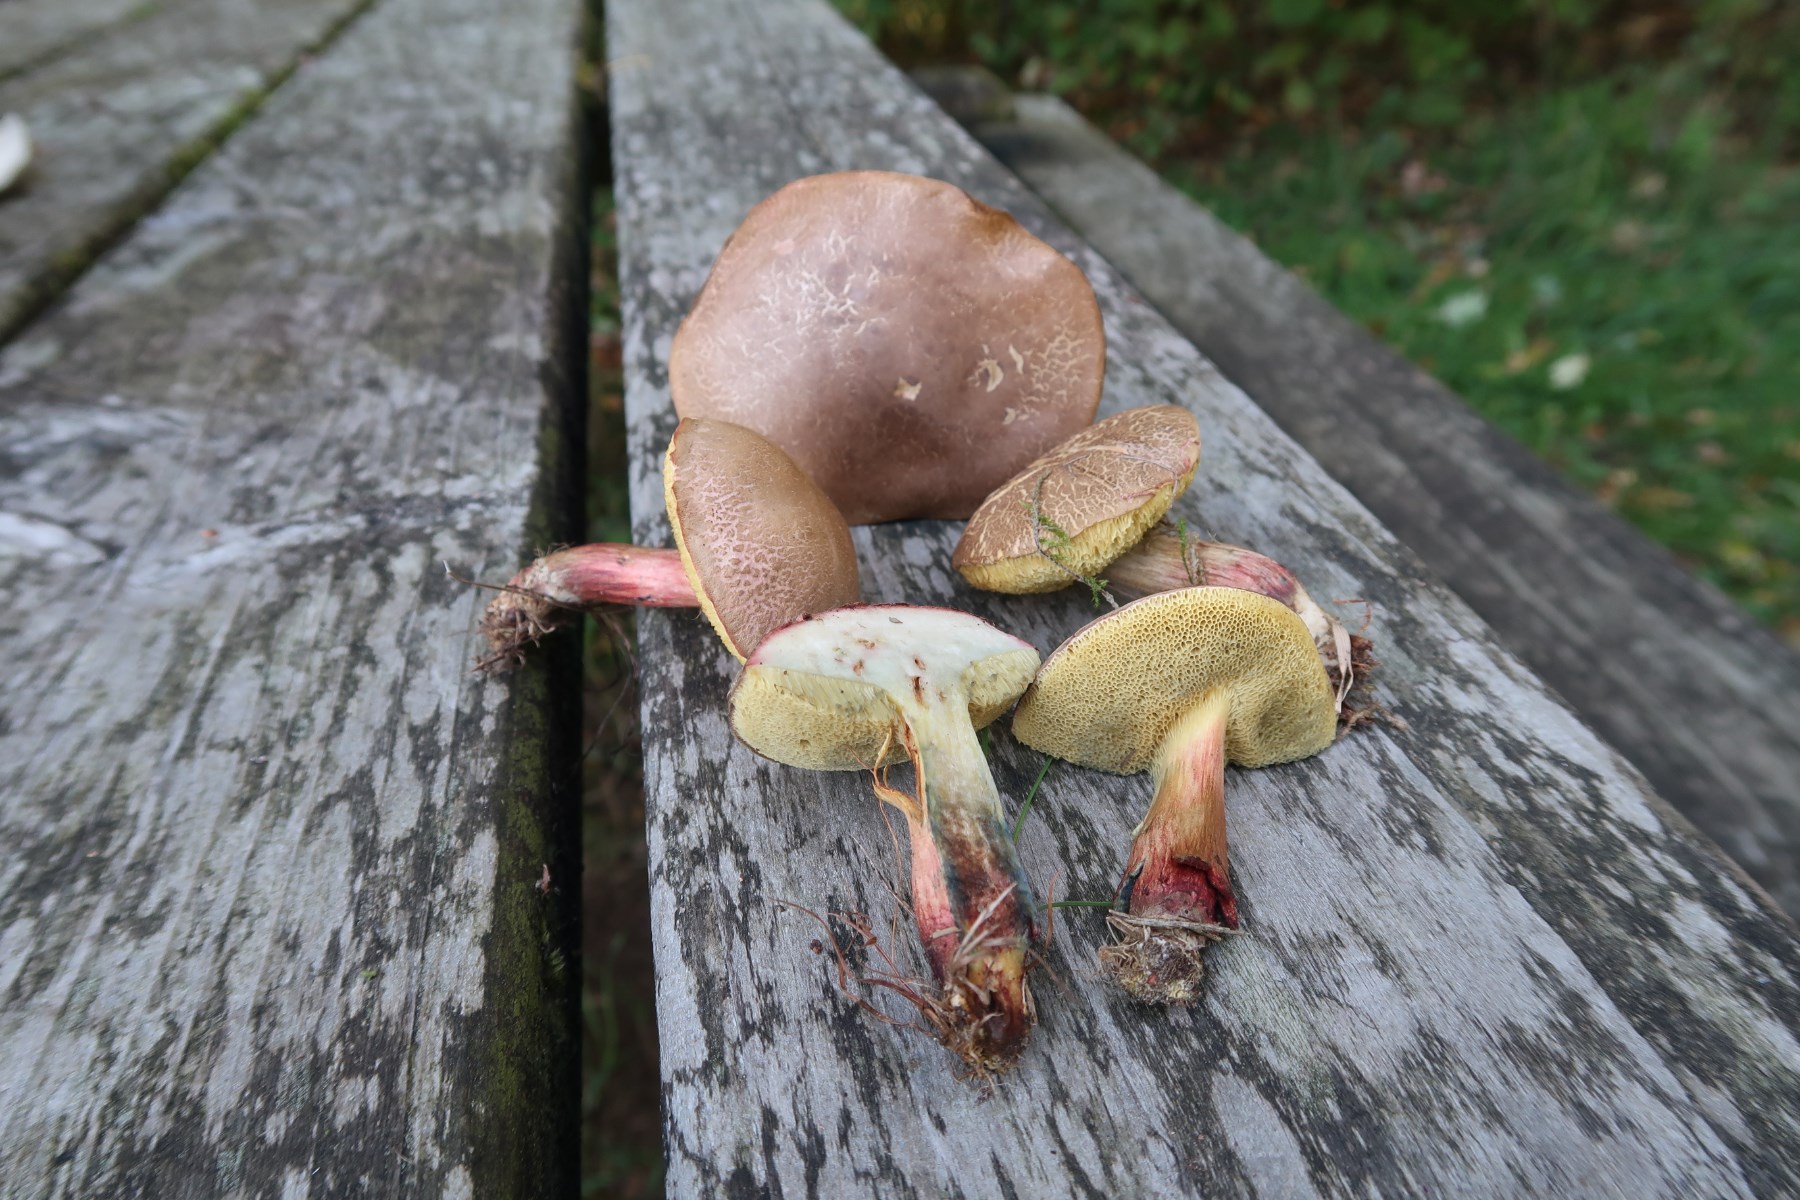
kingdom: Fungi
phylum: Basidiomycota
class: Agaricomycetes
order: Boletales
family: Boletaceae
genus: Xerocomellus
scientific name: Xerocomellus cisalpinus
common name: finsprukken rørhat
